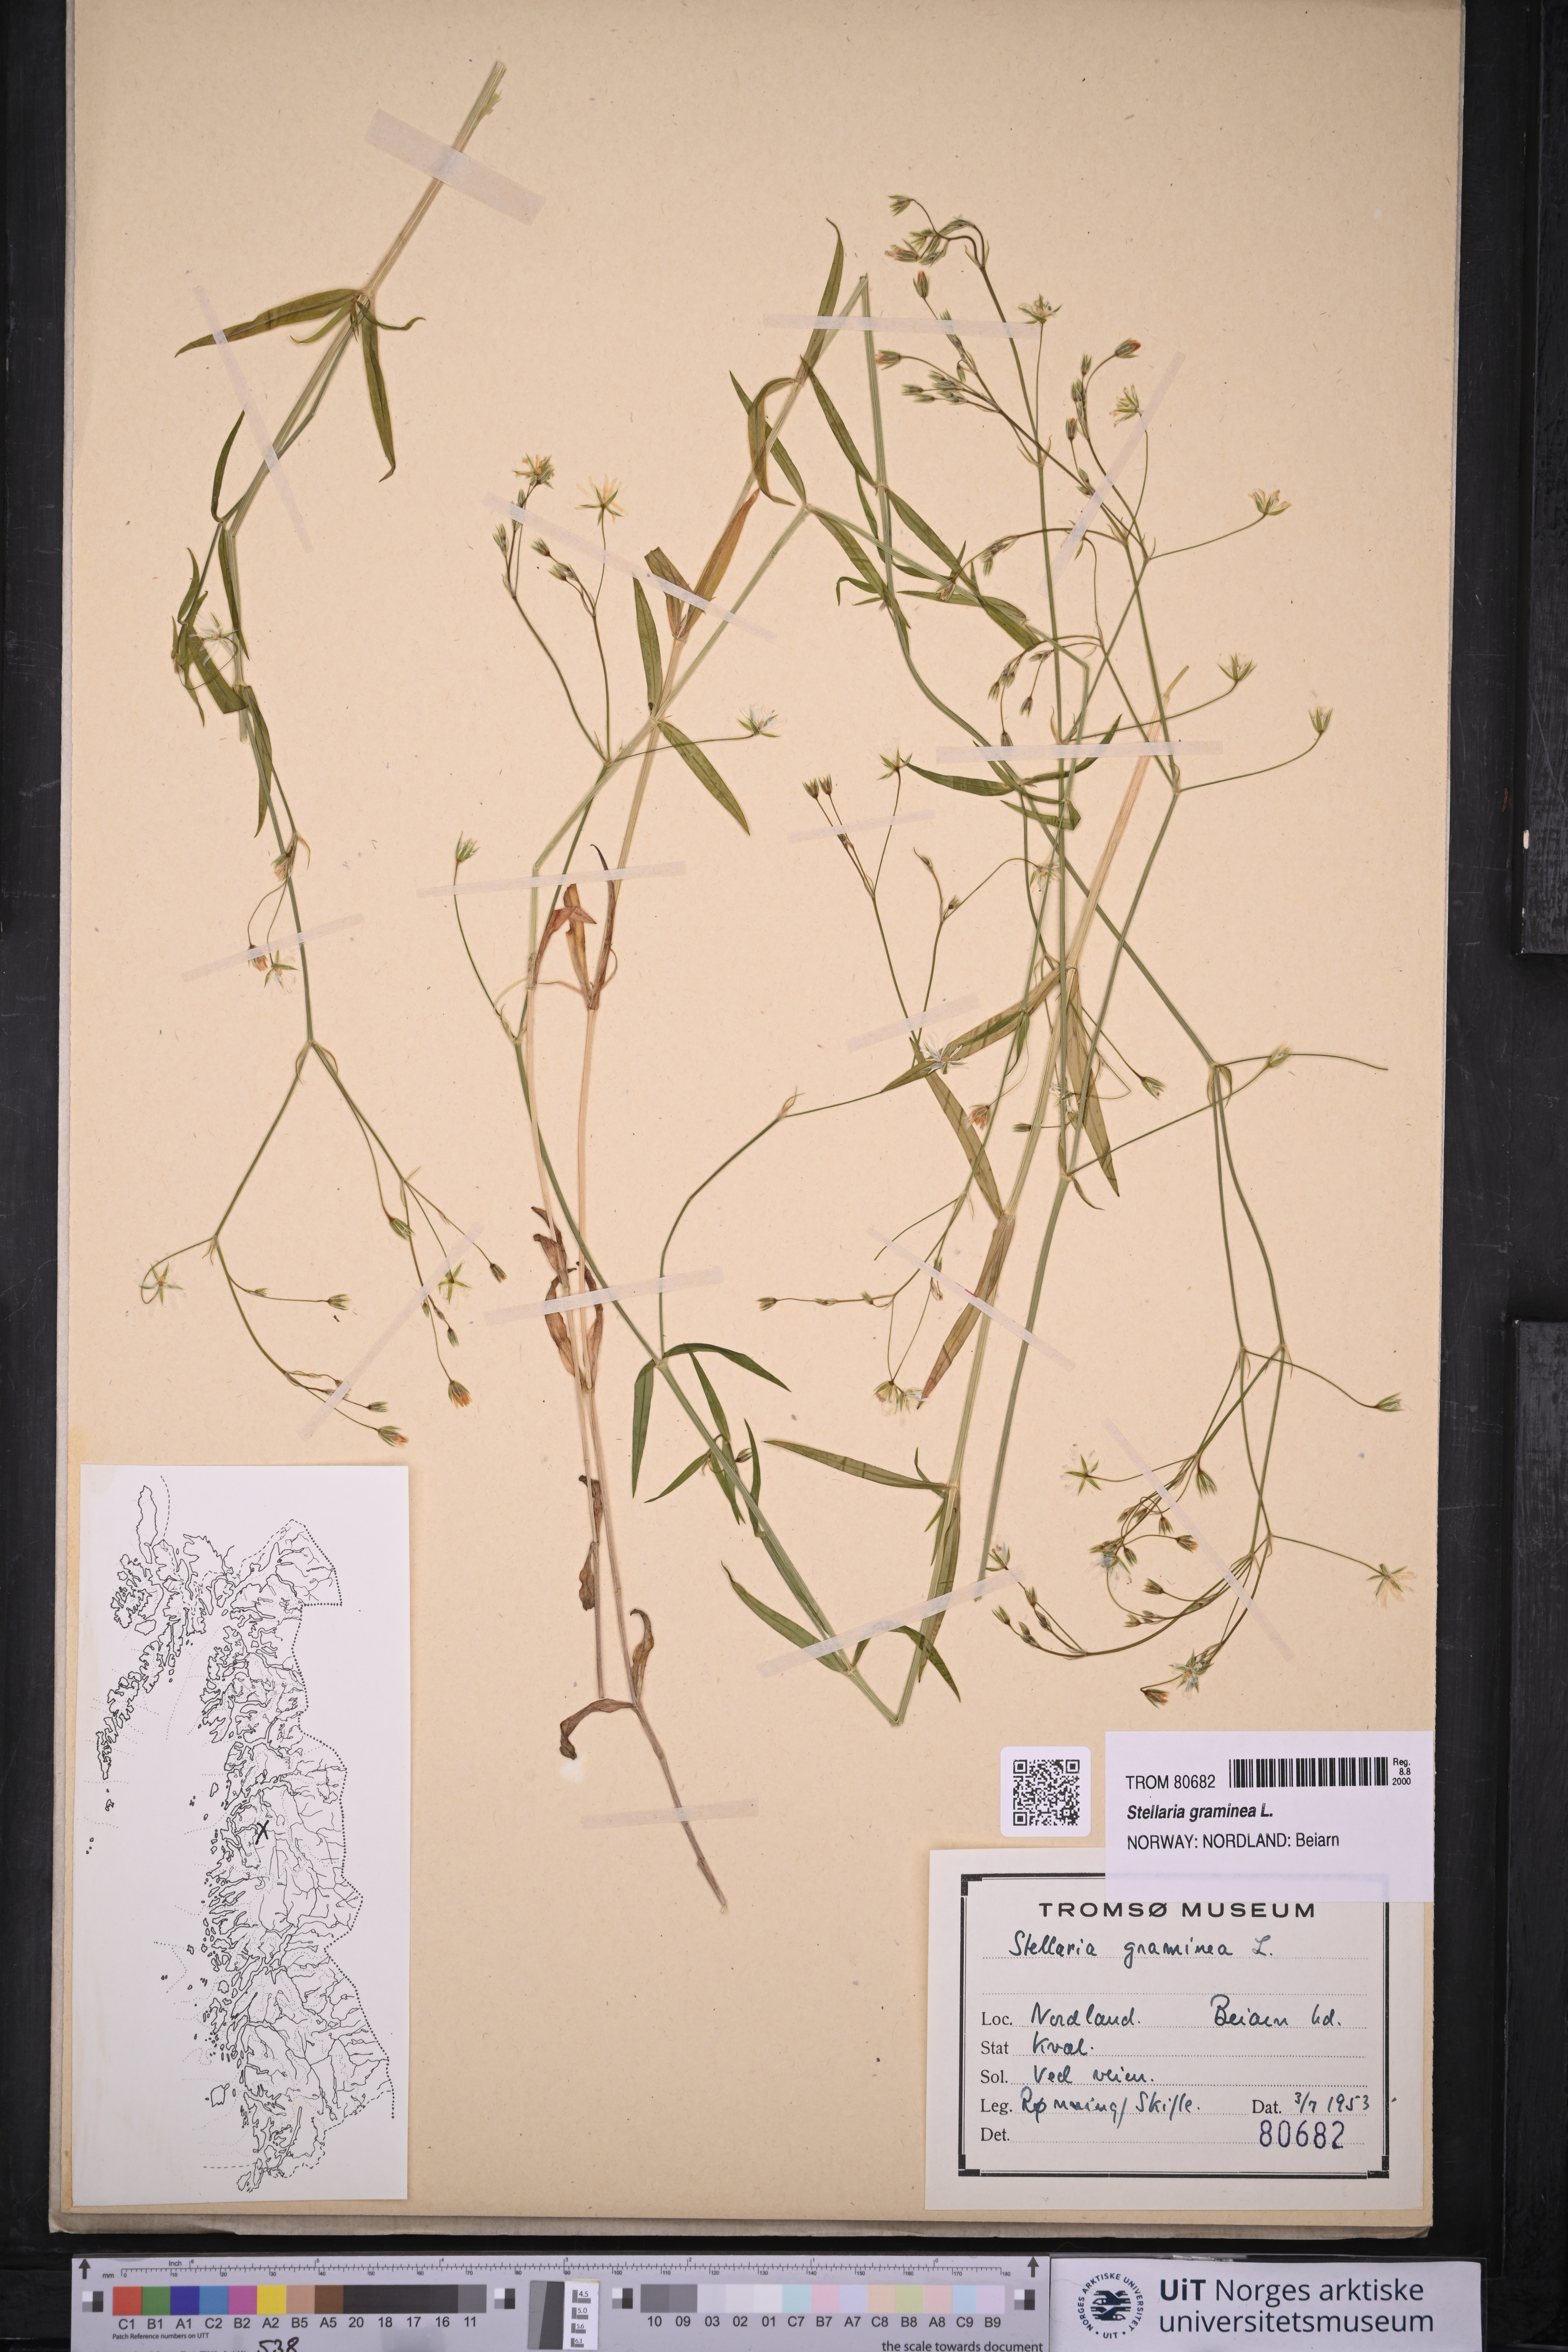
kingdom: Plantae
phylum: Tracheophyta
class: Magnoliopsida
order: Caryophyllales
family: Caryophyllaceae
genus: Stellaria
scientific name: Stellaria graminea
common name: Grass-like starwort
